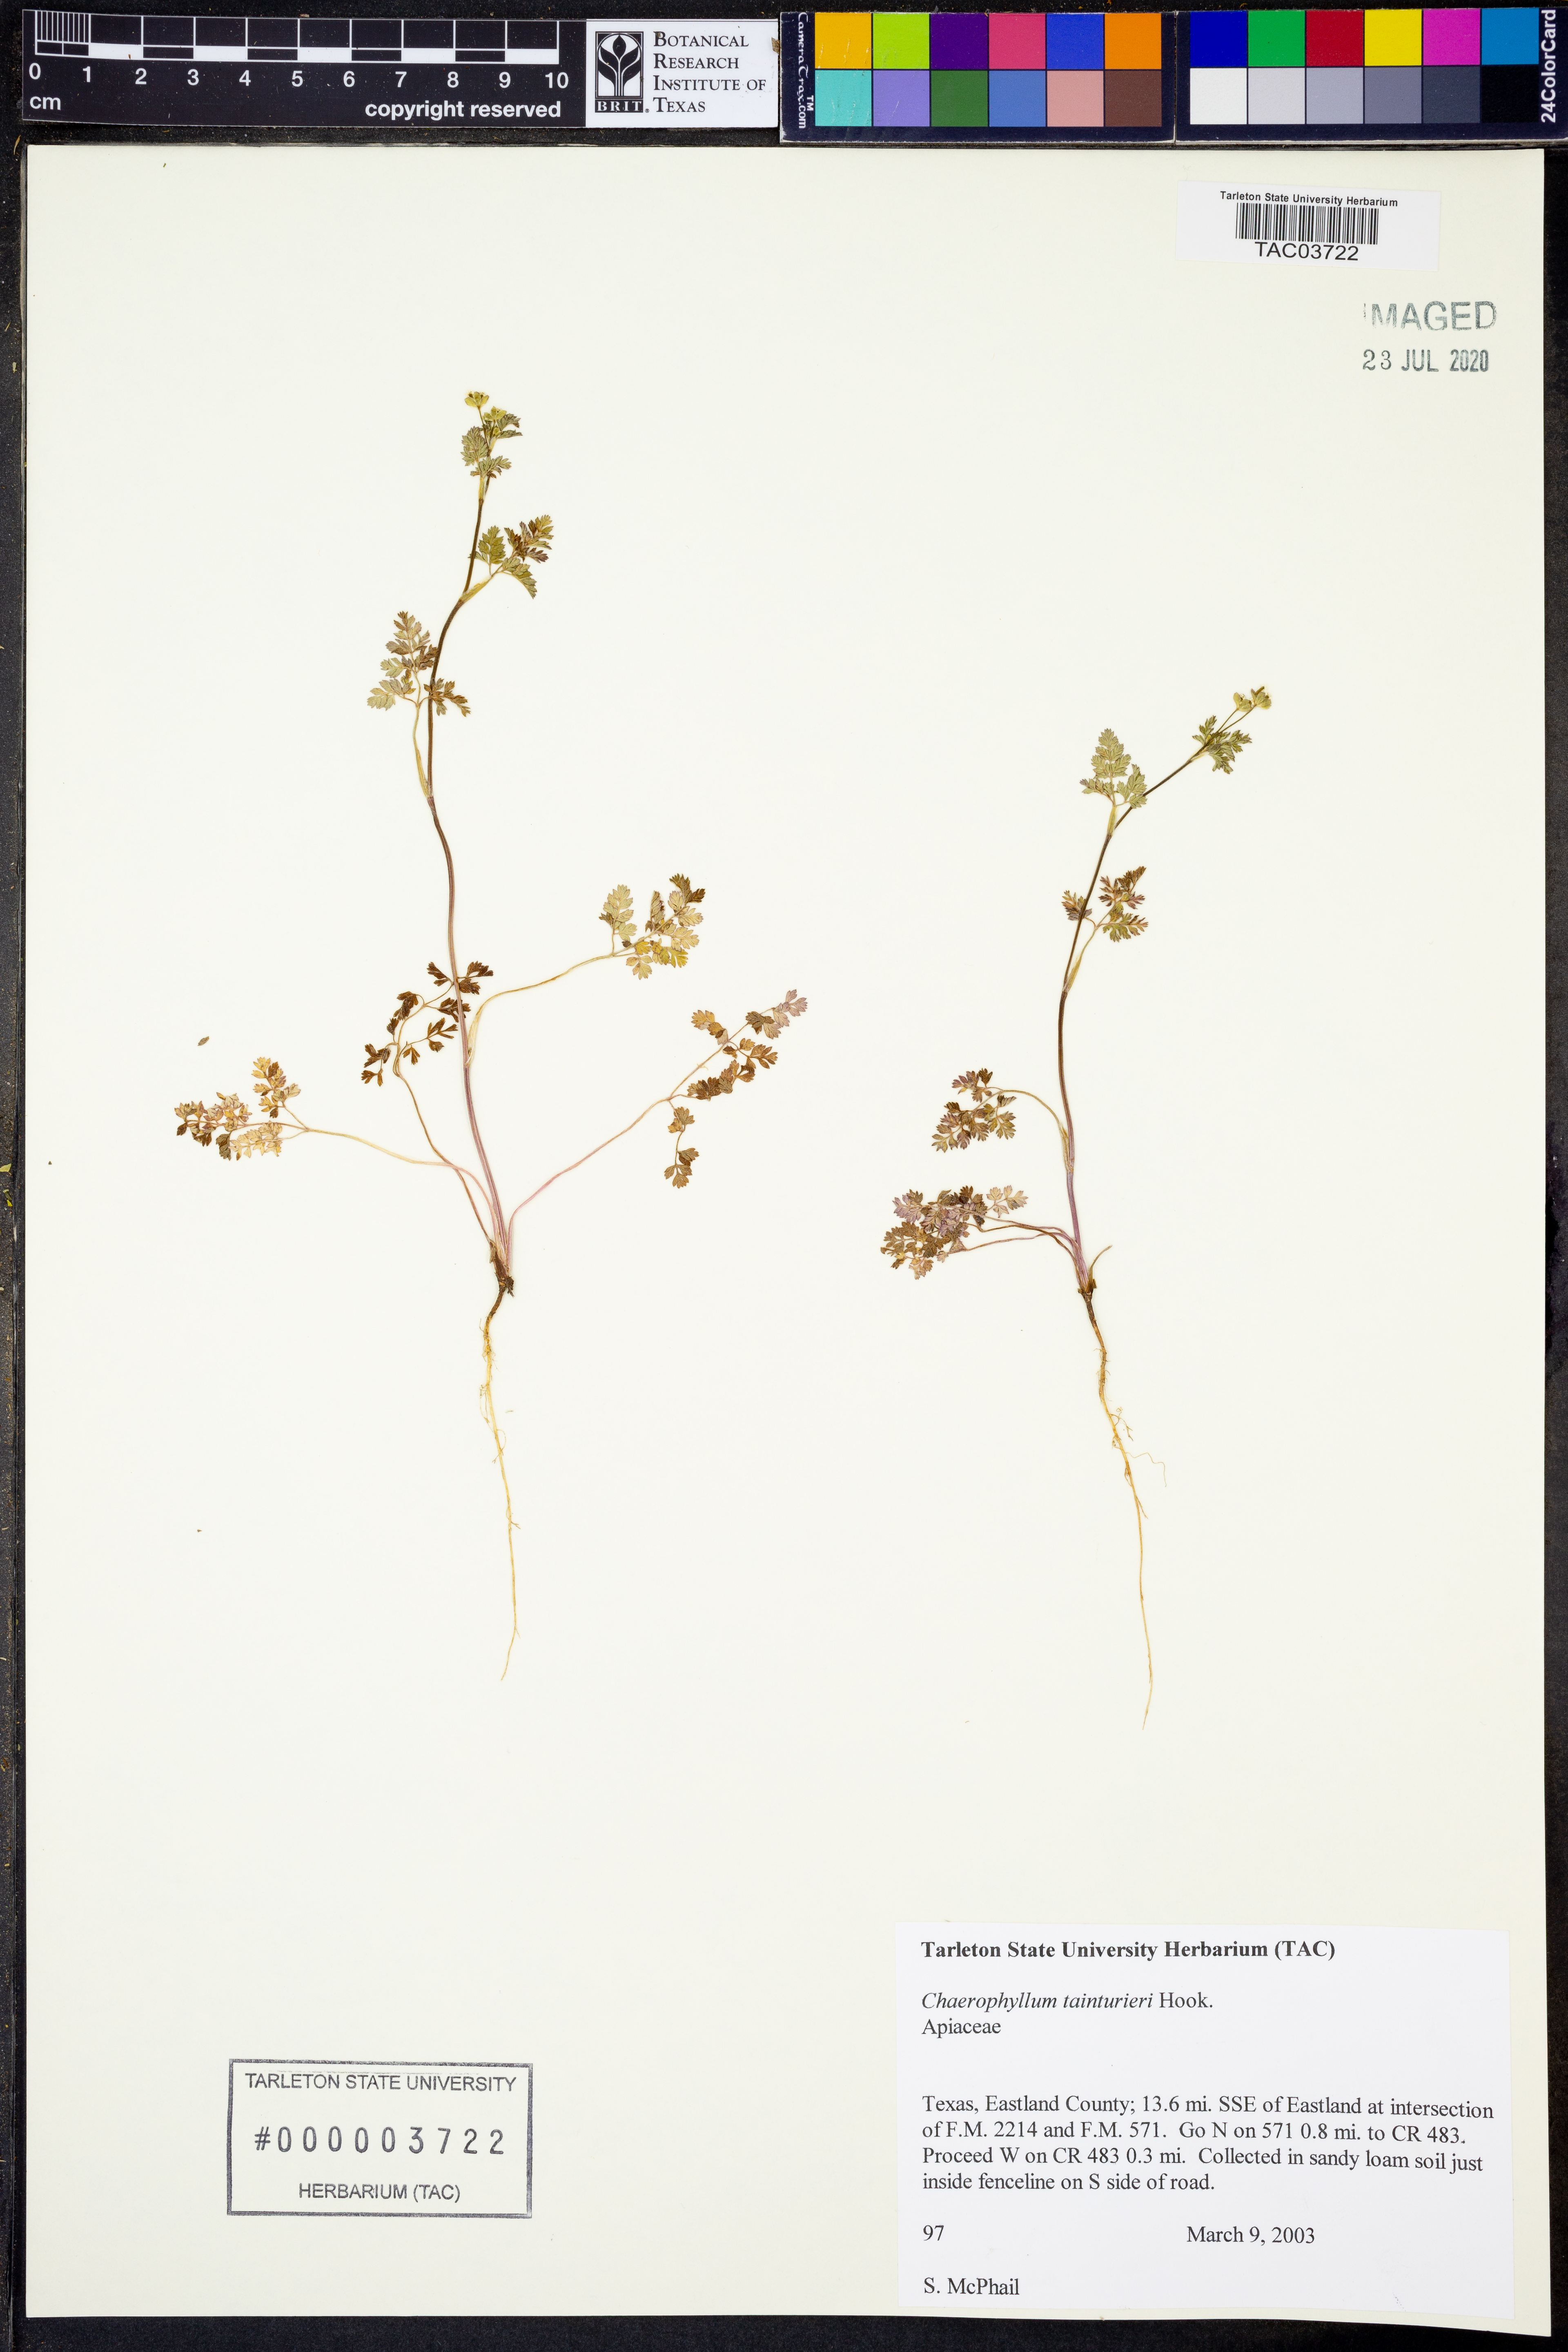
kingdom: Plantae
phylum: Tracheophyta
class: Magnoliopsida
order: Apiales
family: Apiaceae
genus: Chaerophyllum
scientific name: Chaerophyllum tainturieri
